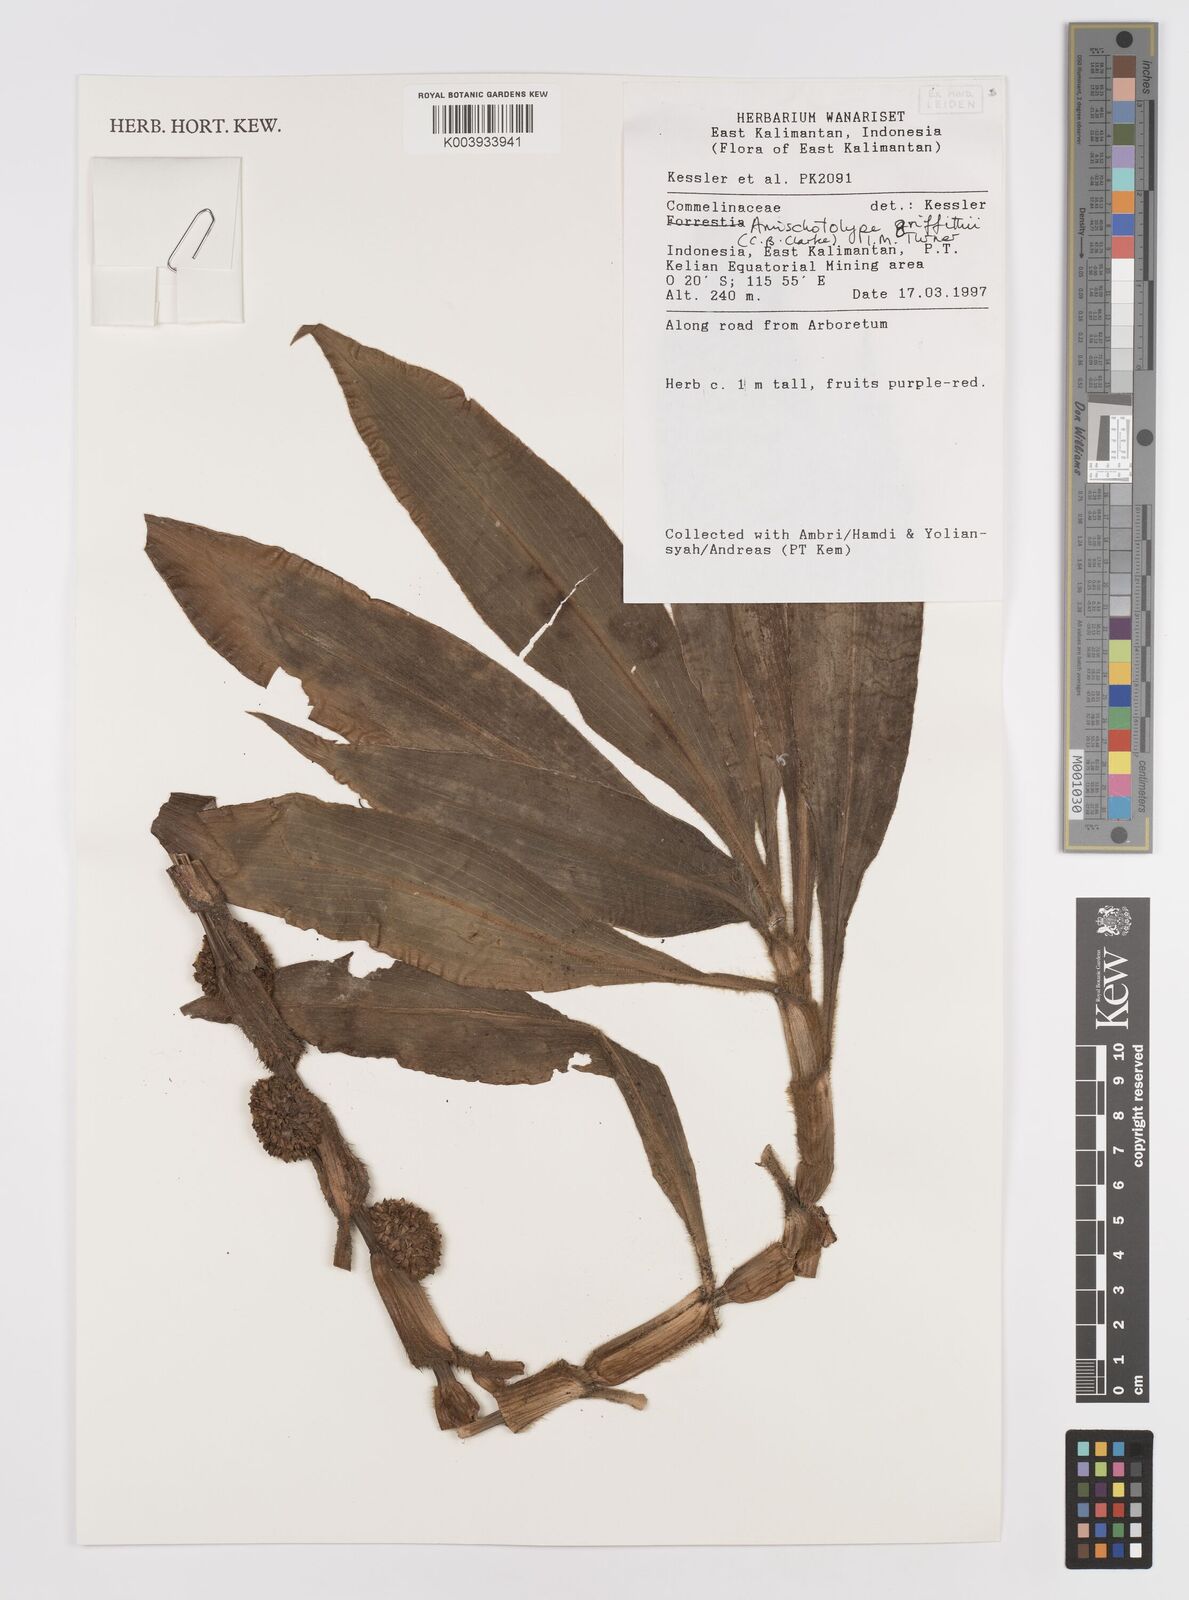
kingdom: Plantae
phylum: Tracheophyta
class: Liliopsida
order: Commelinales
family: Commelinaceae
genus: Amischotolype
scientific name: Amischotolype griffithii
